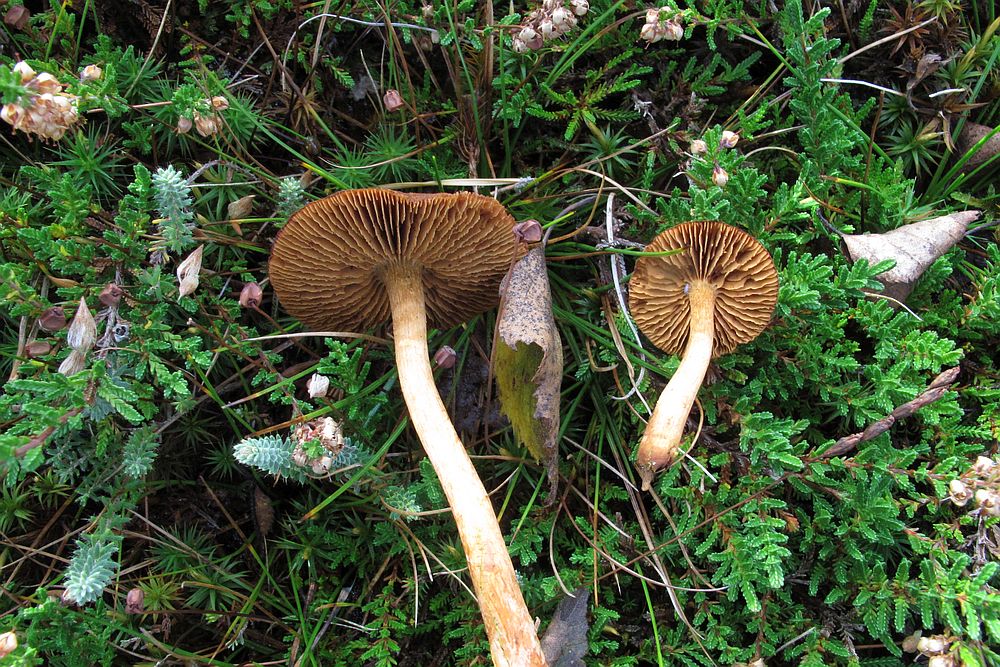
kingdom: Fungi
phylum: Basidiomycota
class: Agaricomycetes
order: Agaricales
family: Cortinariaceae
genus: Cortinarius
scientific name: Cortinarius pellstonianus
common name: zoneret slørhat
